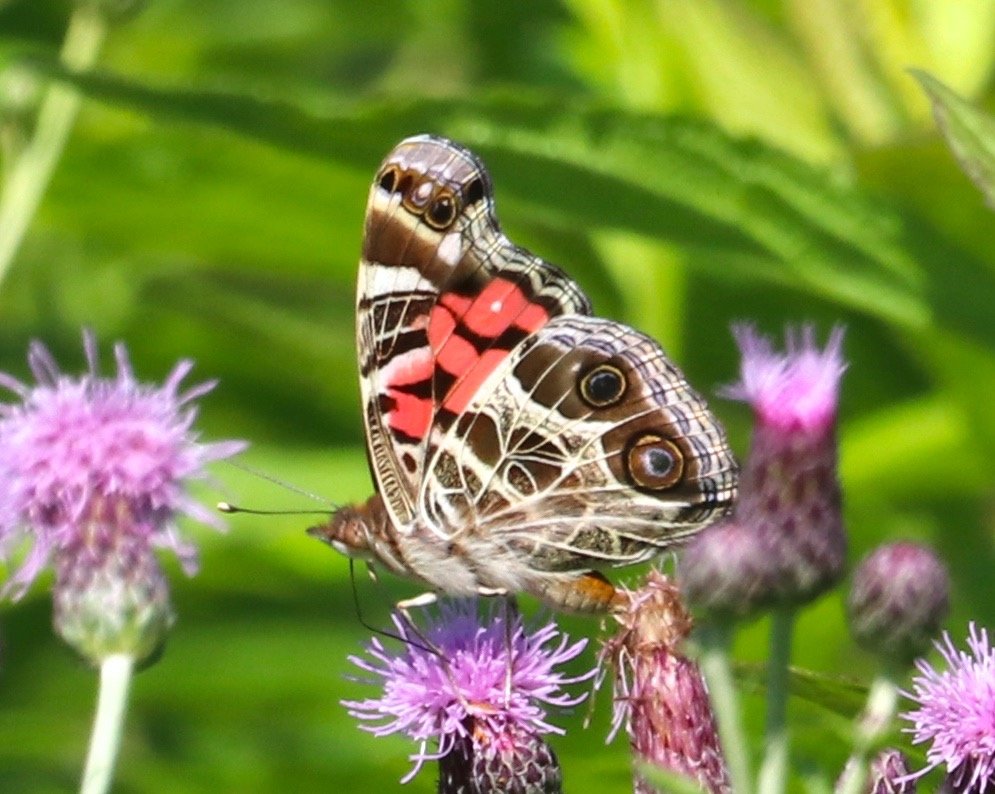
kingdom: Animalia
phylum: Arthropoda
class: Insecta
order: Lepidoptera
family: Nymphalidae
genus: Vanessa
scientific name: Vanessa virginiensis
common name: American Lady
